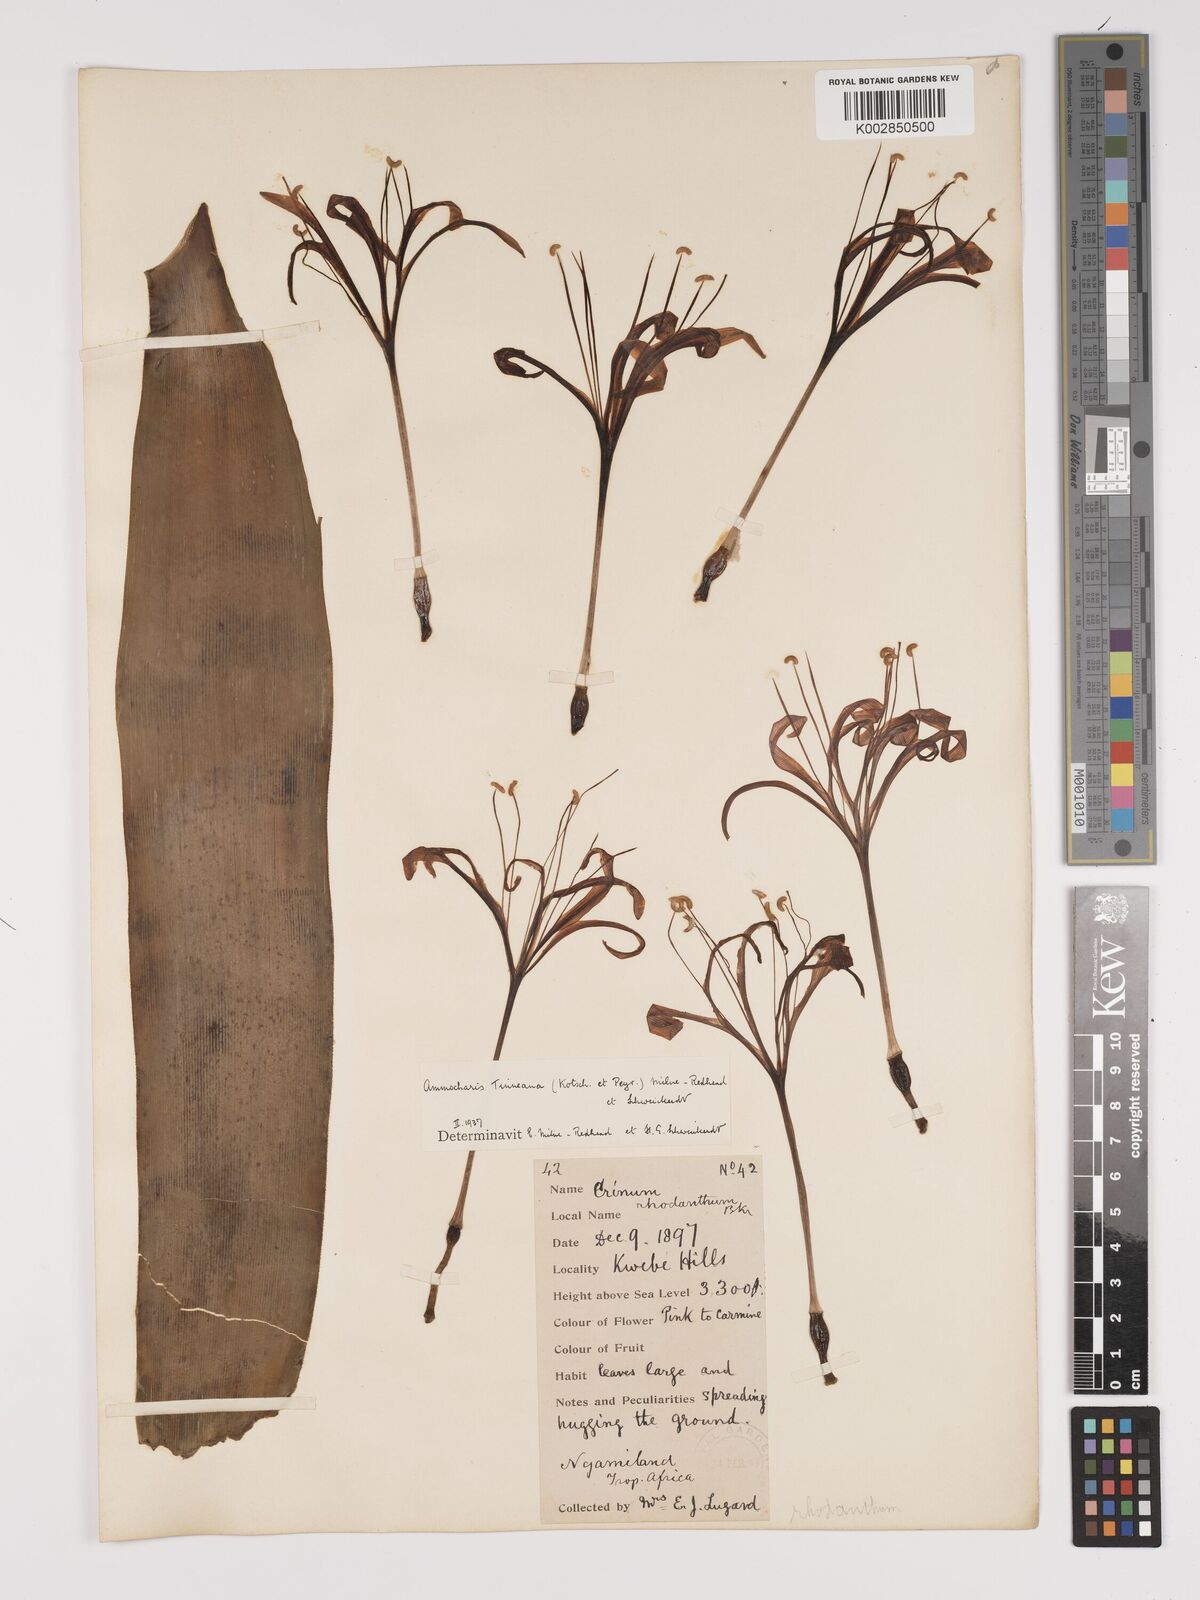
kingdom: Plantae
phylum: Tracheophyta
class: Liliopsida
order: Asparagales
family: Amaryllidaceae
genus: Ammocharis
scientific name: Ammocharis
